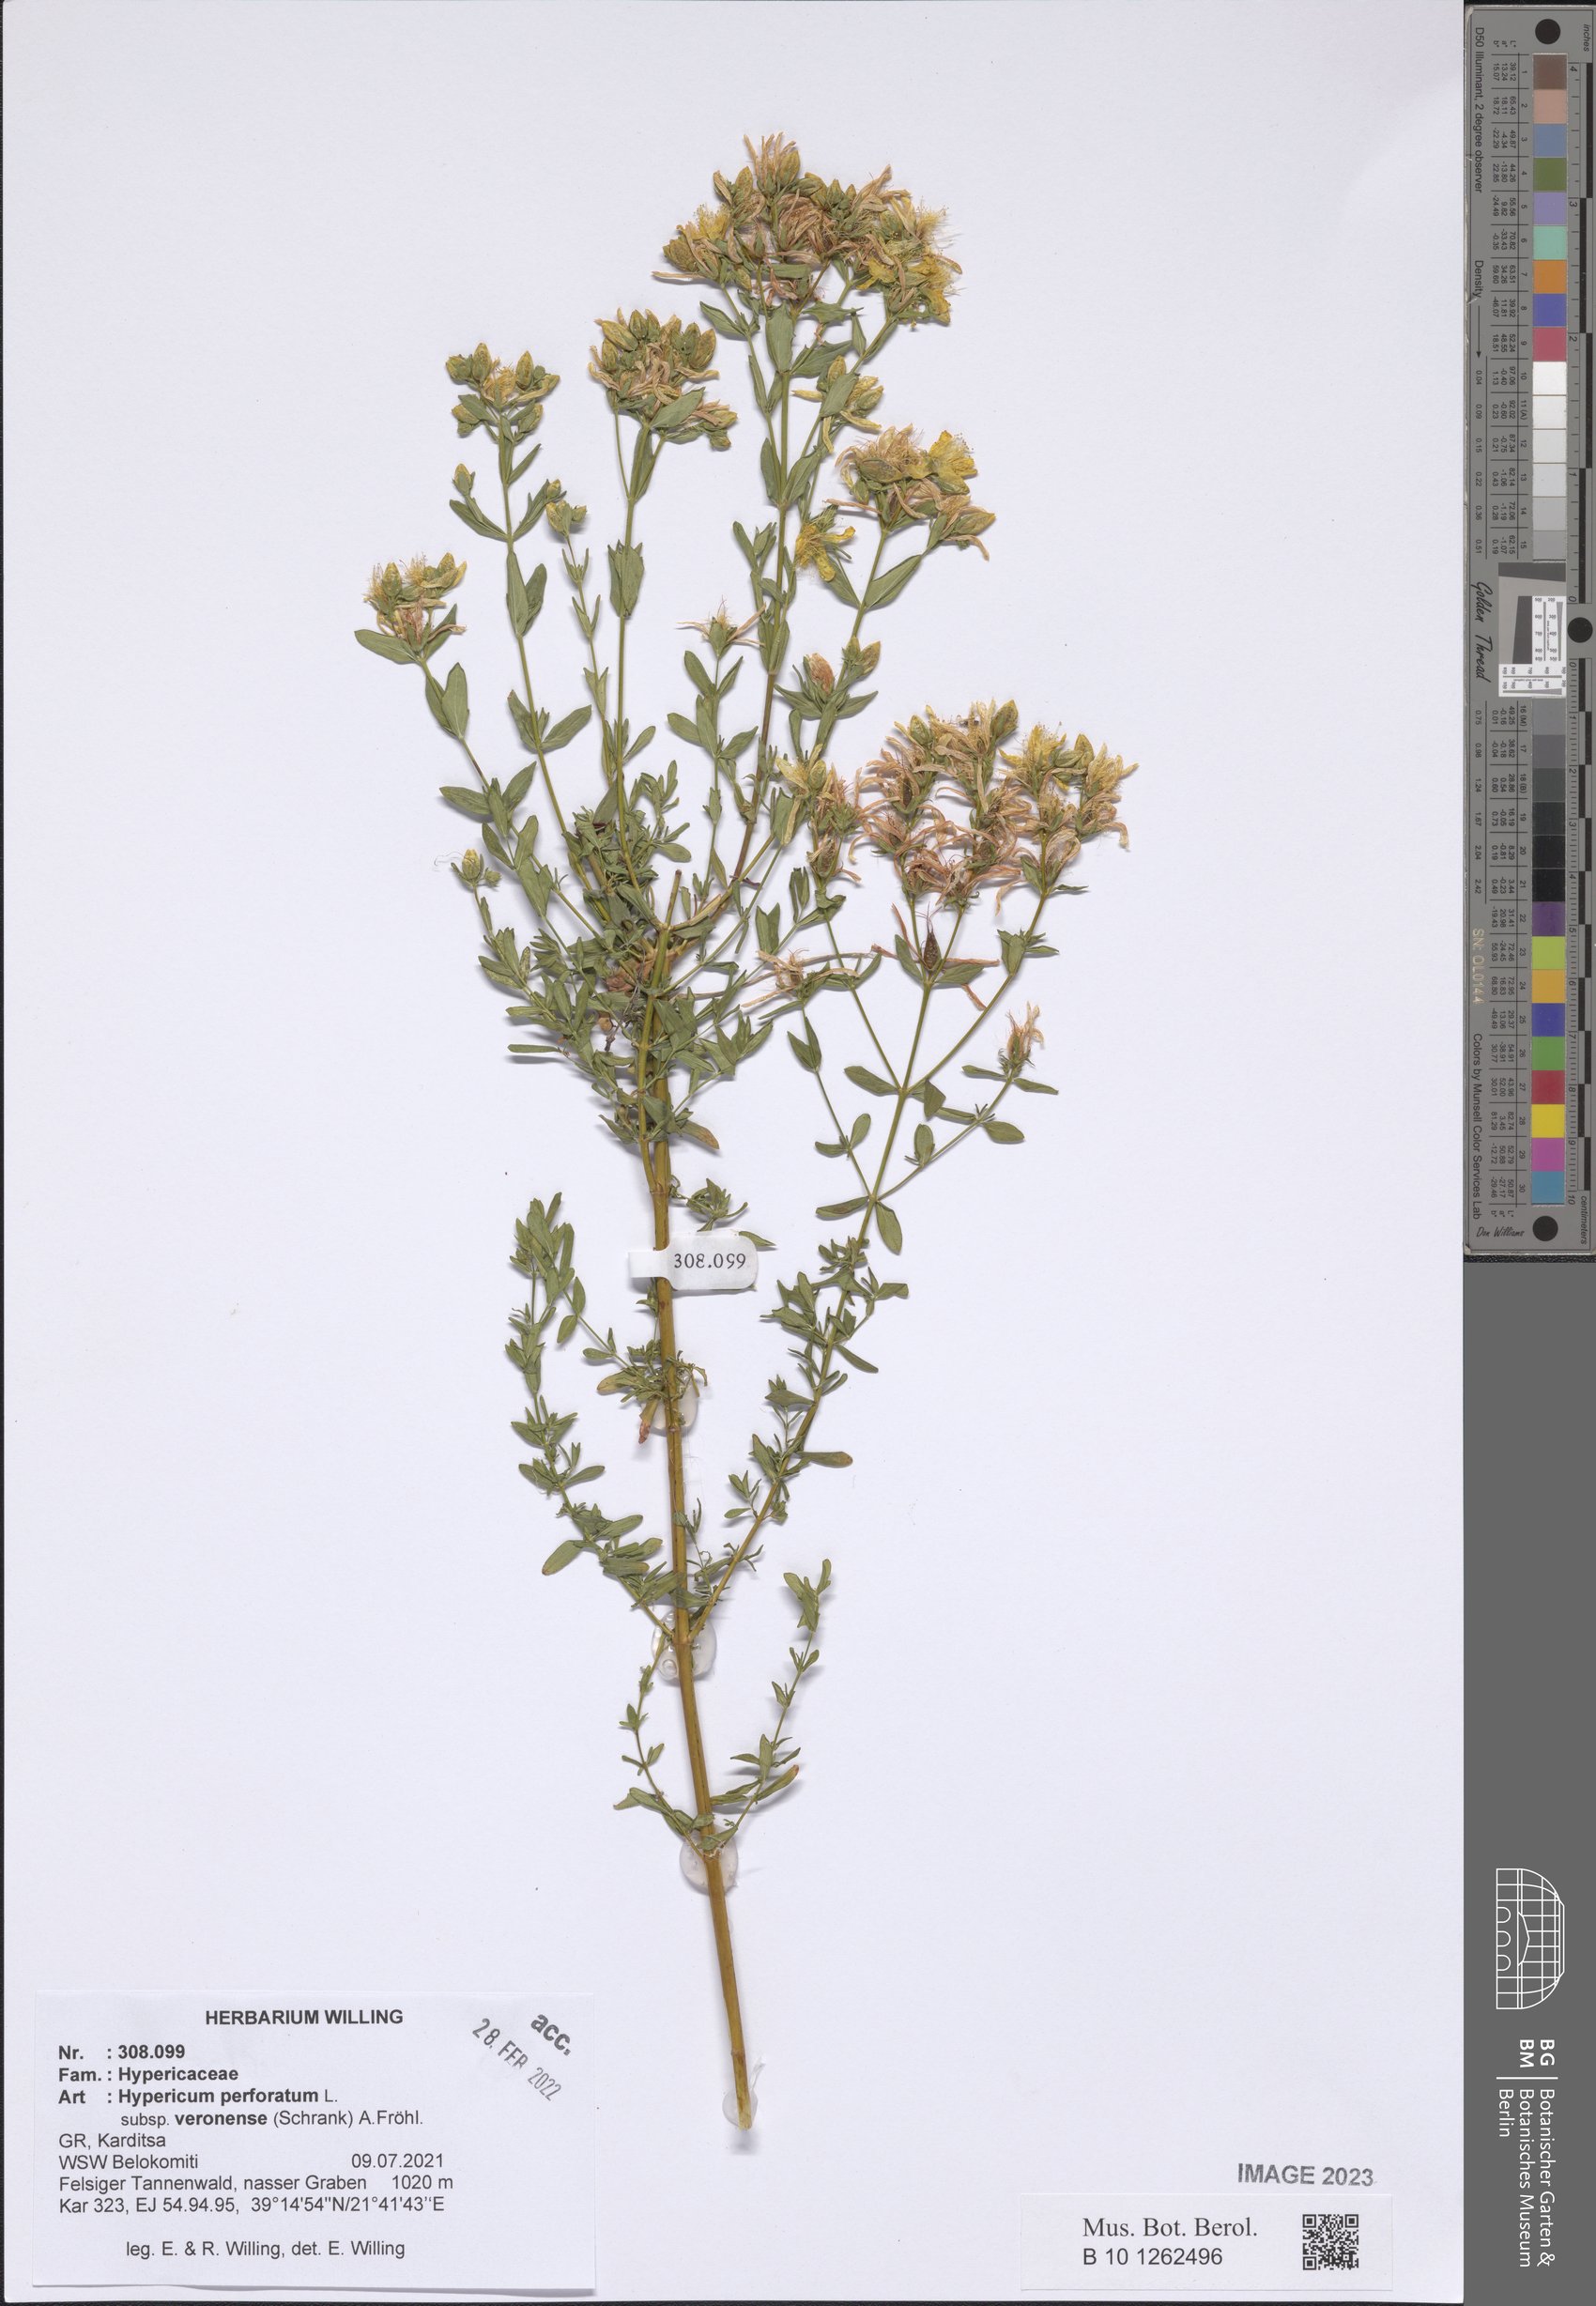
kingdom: Plantae
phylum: Tracheophyta
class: Magnoliopsida
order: Malpighiales
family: Hypericaceae
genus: Hypericum
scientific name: Hypericum veronense
